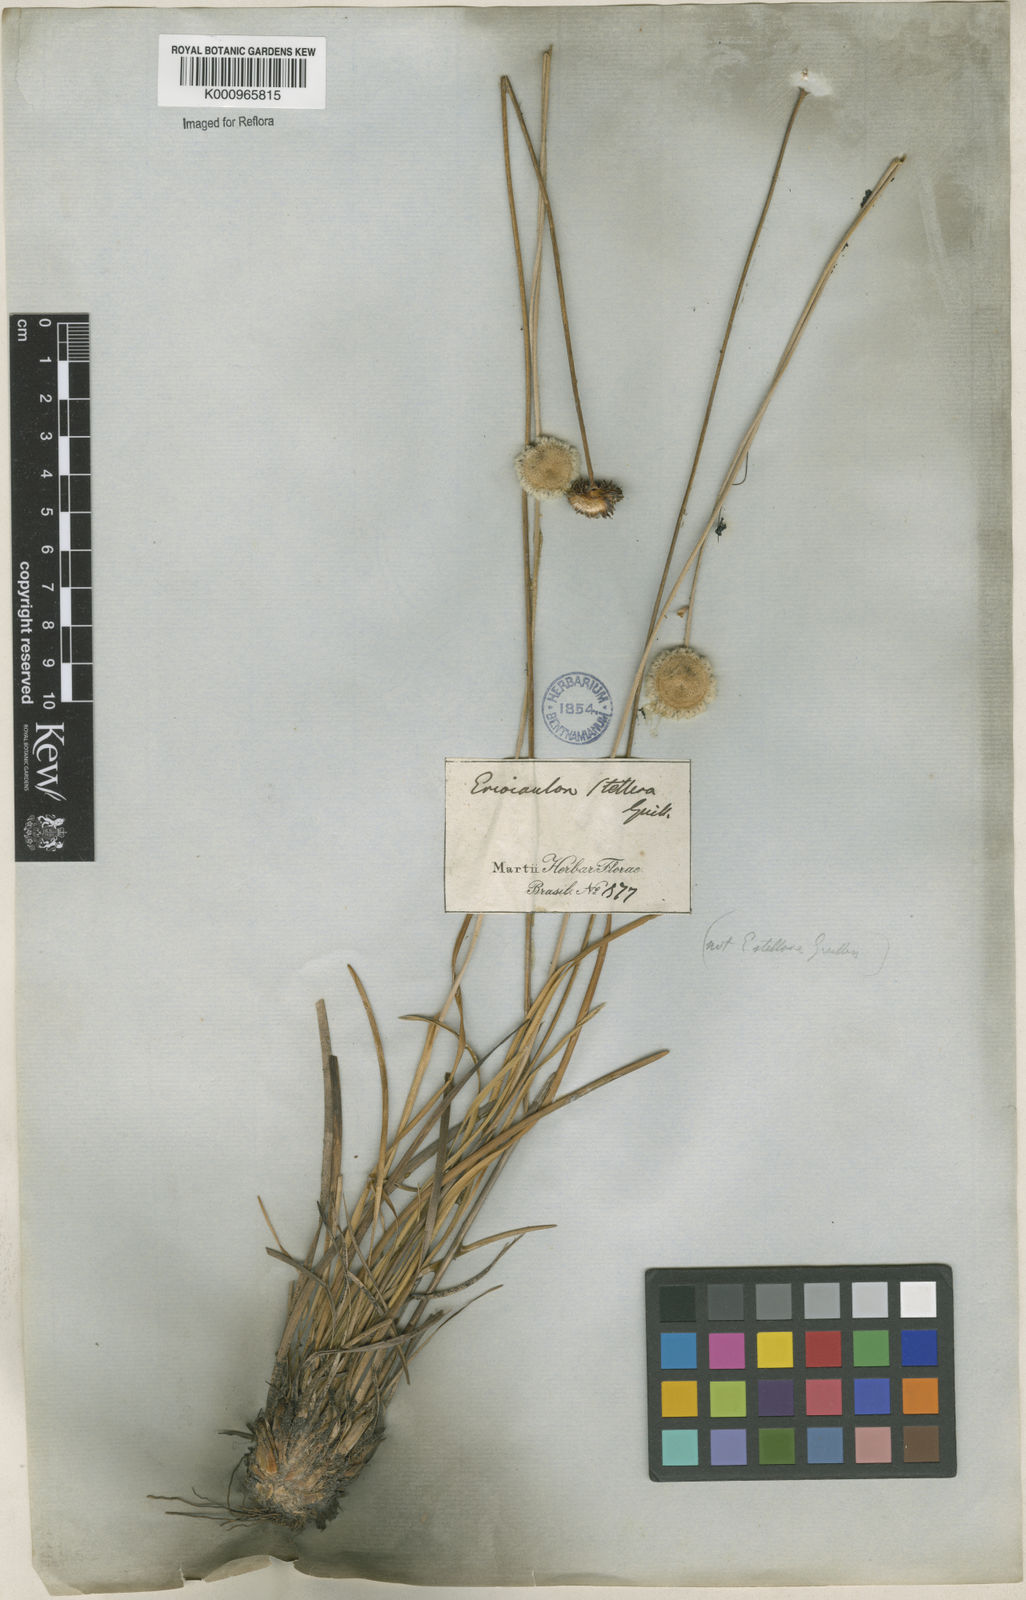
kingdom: Plantae
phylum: Tracheophyta
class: Liliopsida
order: Poales
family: Eriocaulaceae
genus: Paepalanthus
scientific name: Paepalanthus
